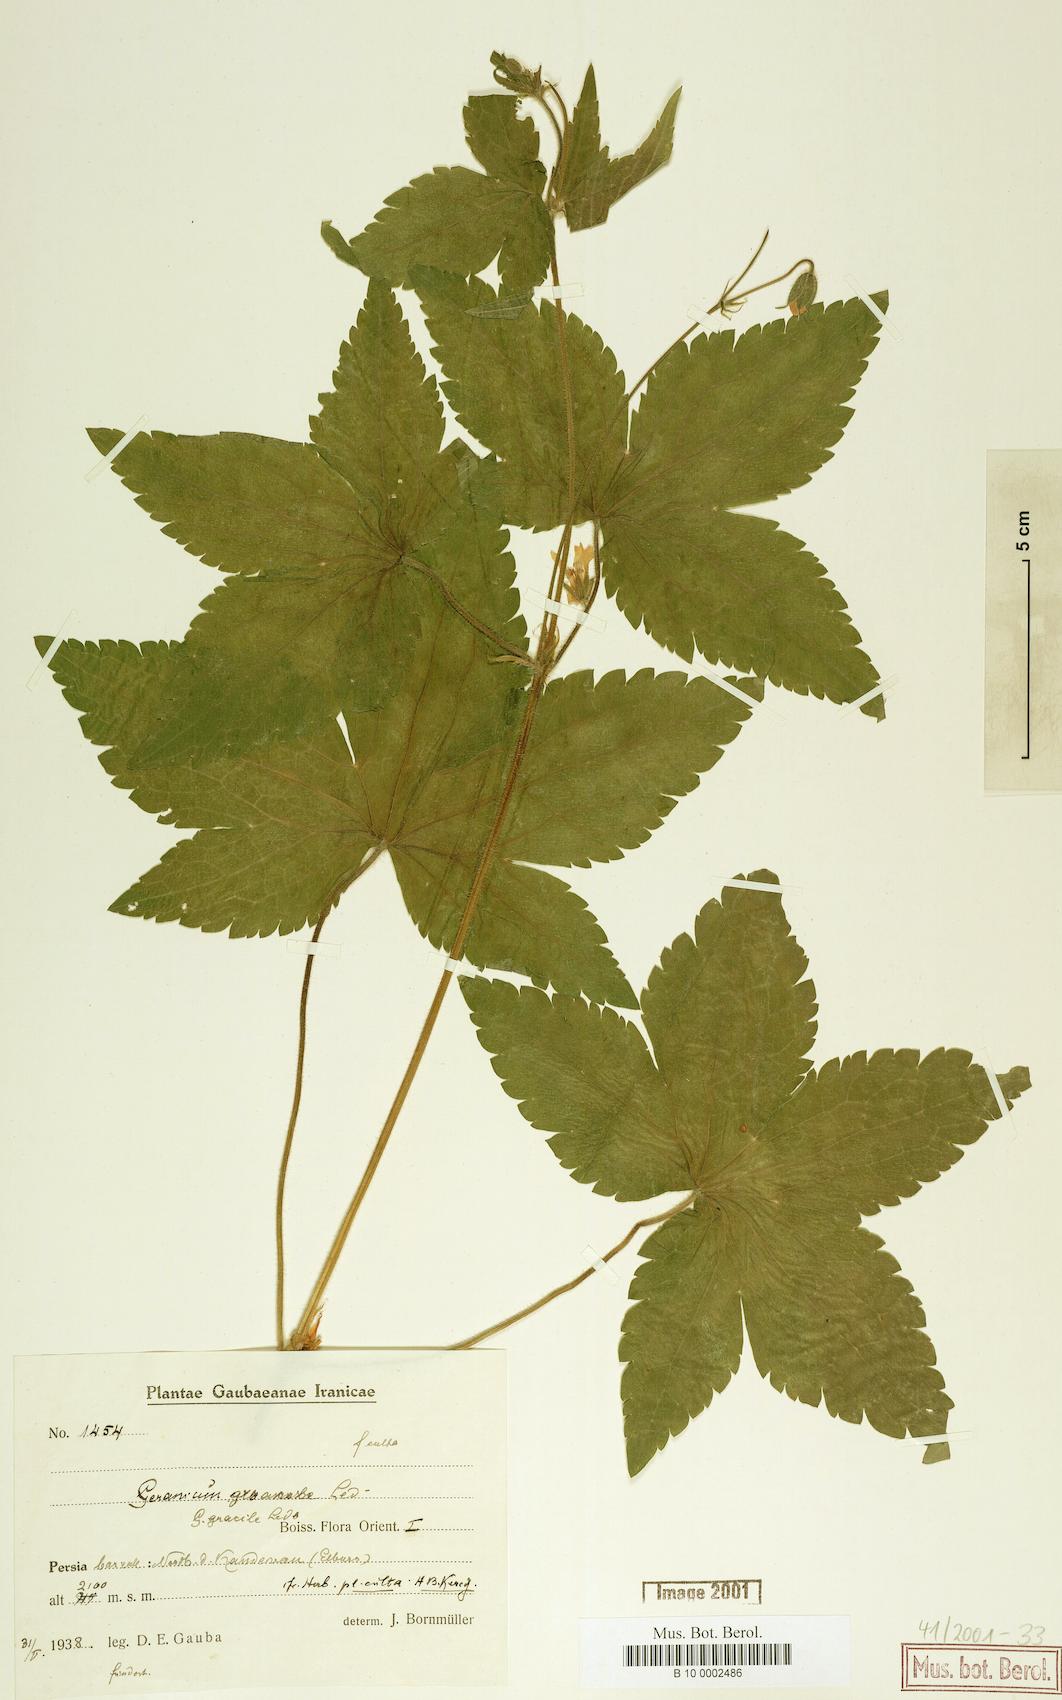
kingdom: Plantae
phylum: Tracheophyta
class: Magnoliopsida
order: Geraniales
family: Geraniaceae
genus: Geranium
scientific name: Geranium gracile
